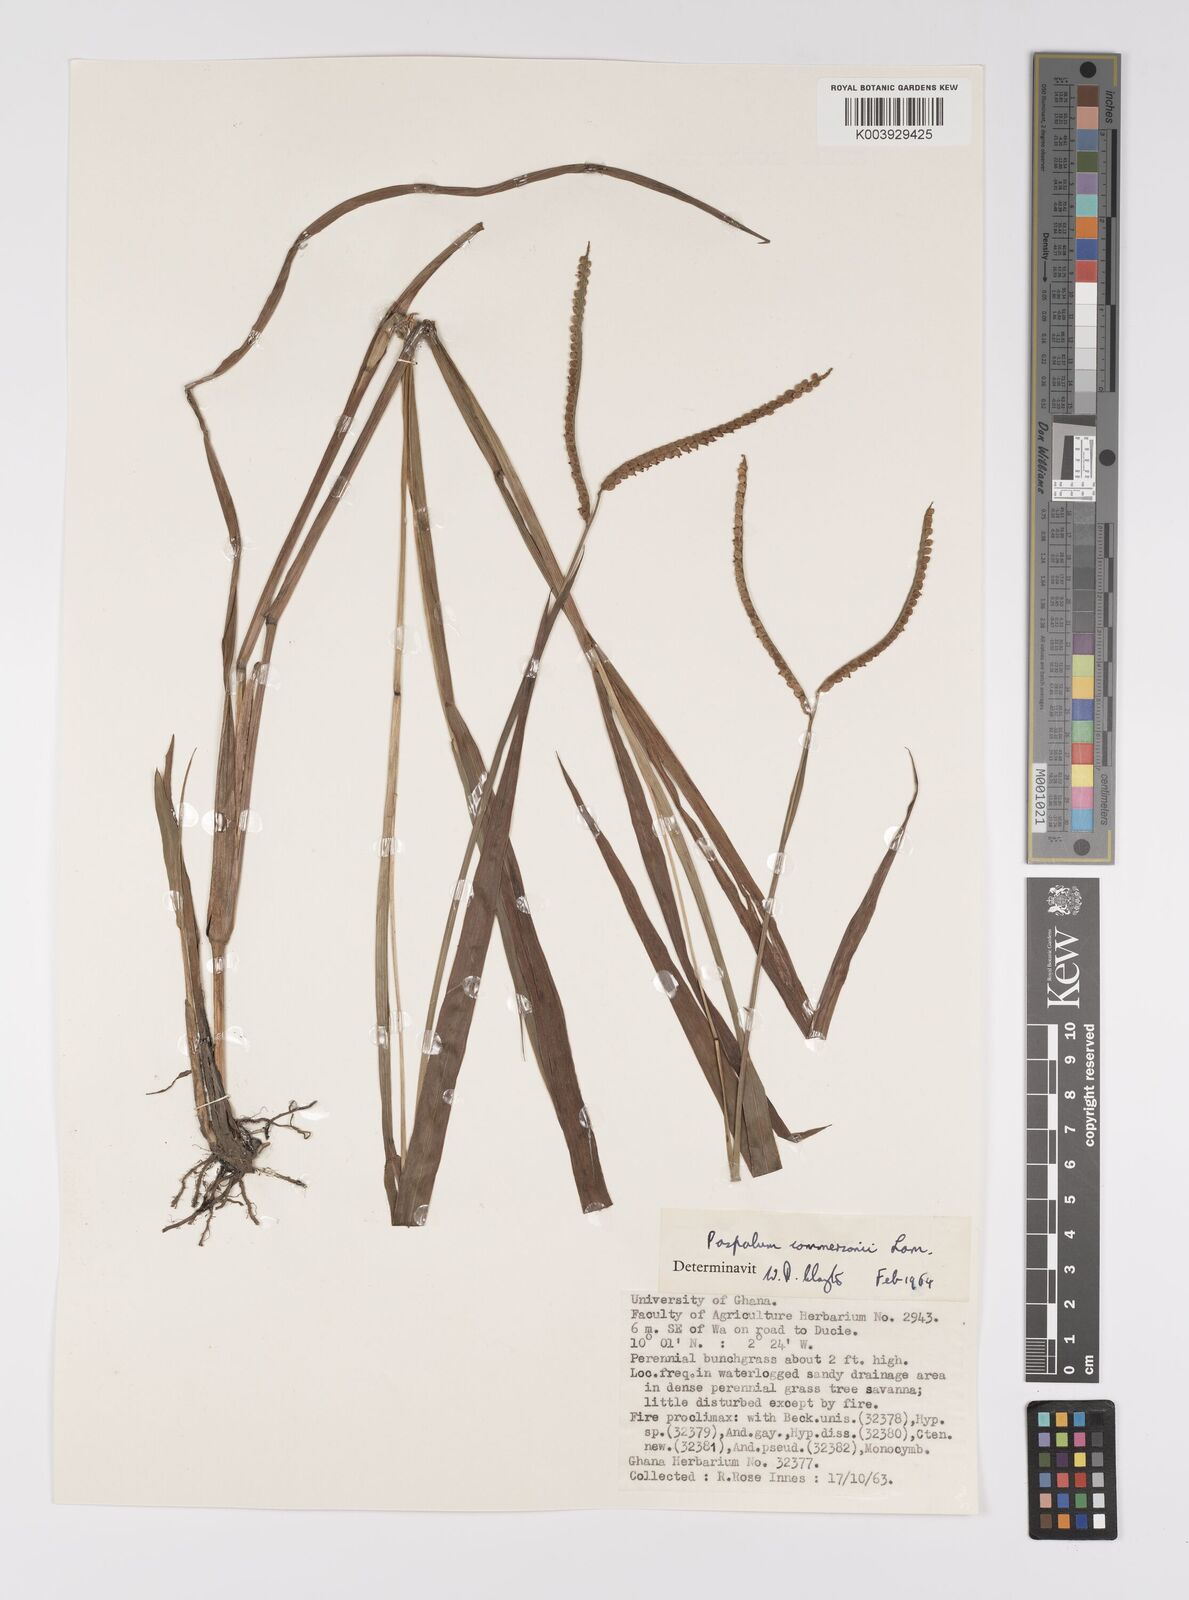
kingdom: Plantae
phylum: Tracheophyta
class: Liliopsida
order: Poales
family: Poaceae
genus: Paspalum
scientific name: Paspalum scrobiculatum
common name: Kodo millet
